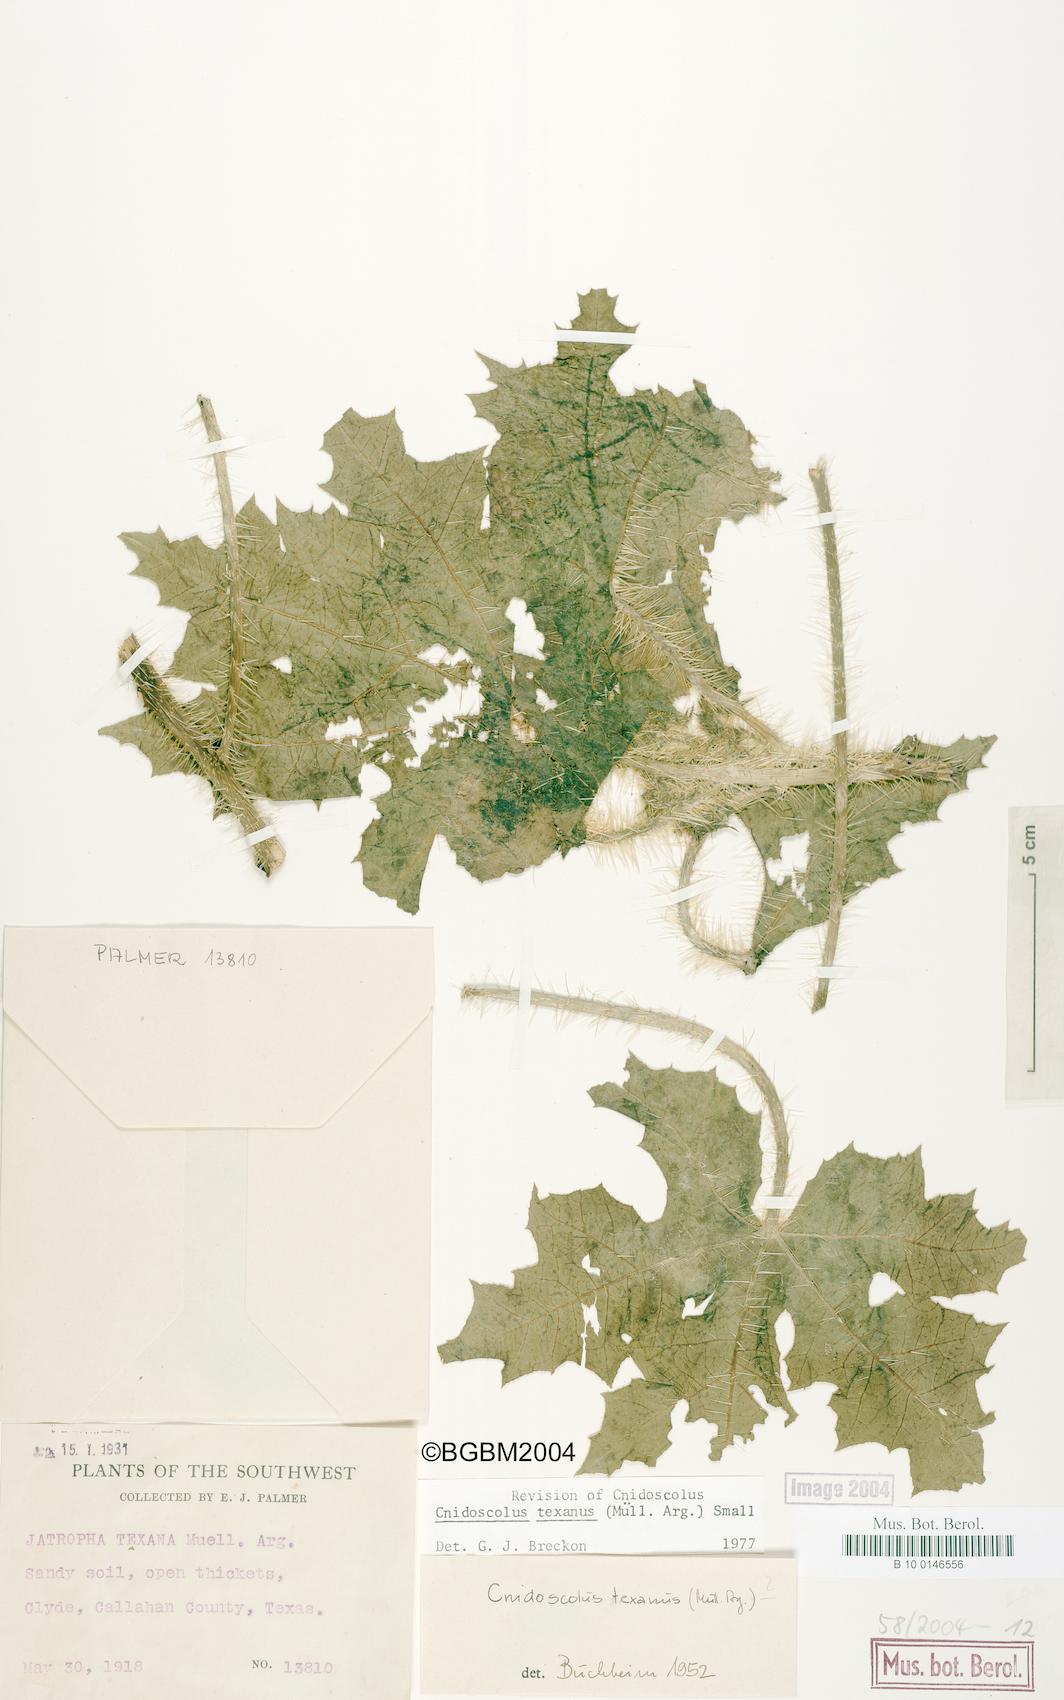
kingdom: Plantae
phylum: Tracheophyta
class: Magnoliopsida
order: Malpighiales
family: Euphorbiaceae
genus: Cnidoscolus
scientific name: Cnidoscolus texanus
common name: Texas bull-nettle
